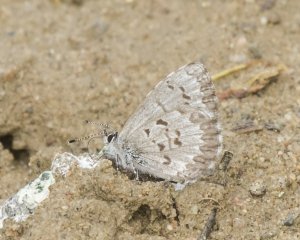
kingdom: Animalia
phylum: Arthropoda
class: Insecta
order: Lepidoptera
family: Lycaenidae
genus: Celastrina
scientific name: Celastrina
